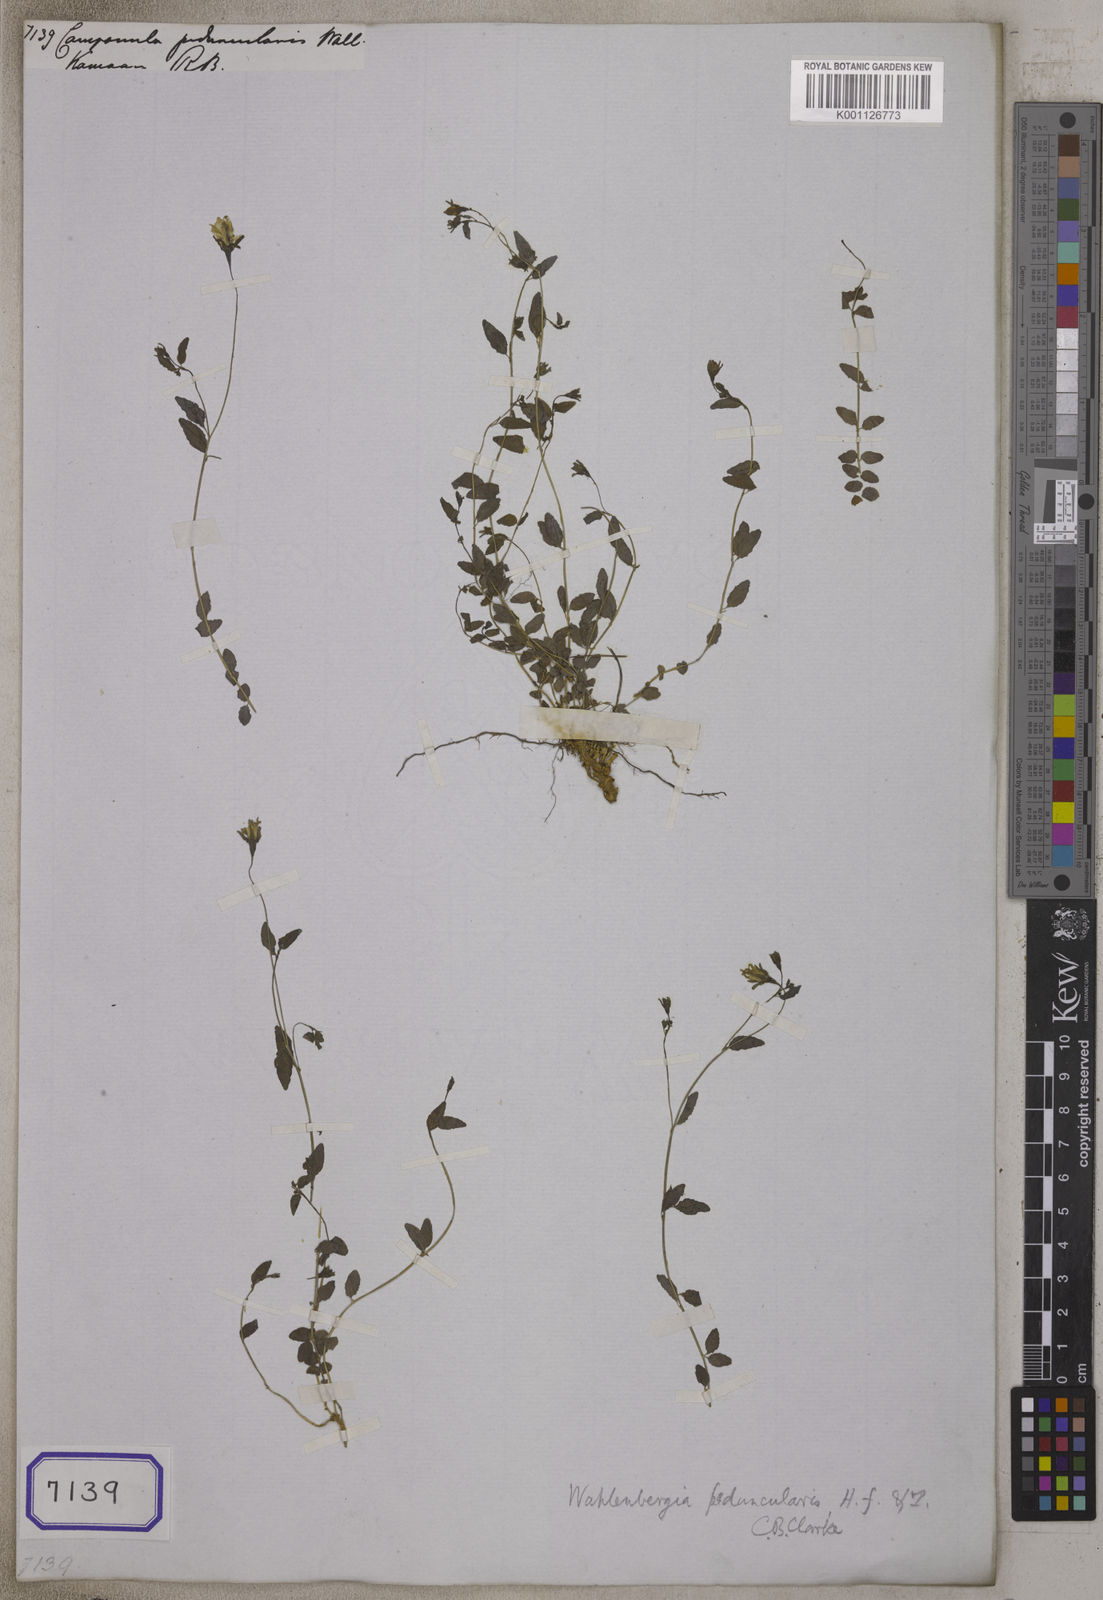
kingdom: Plantae
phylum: Tracheophyta
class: Magnoliopsida
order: Asterales
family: Campanulaceae
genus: Campanula
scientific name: Campanula
